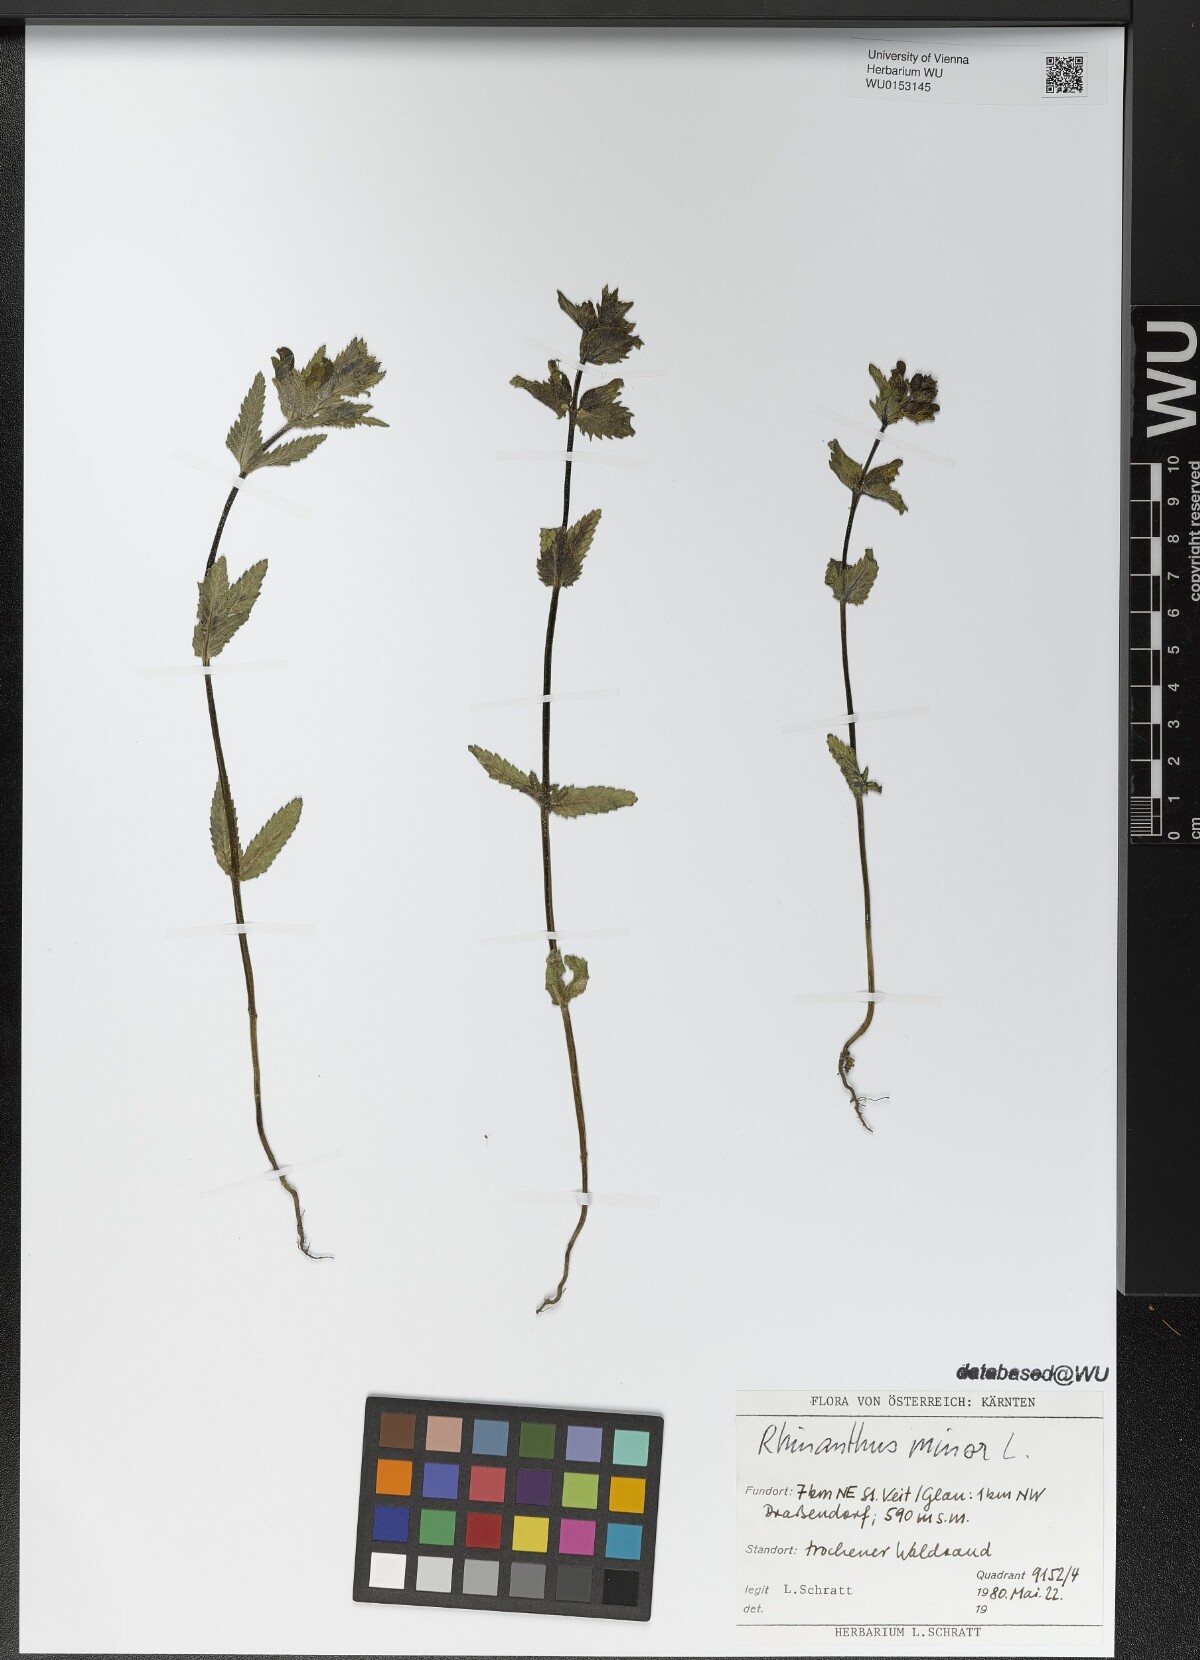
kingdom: Plantae
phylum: Tracheophyta
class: Magnoliopsida
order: Lamiales
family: Orobanchaceae
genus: Rhinanthus
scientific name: Rhinanthus minor
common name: Yellow-rattle
